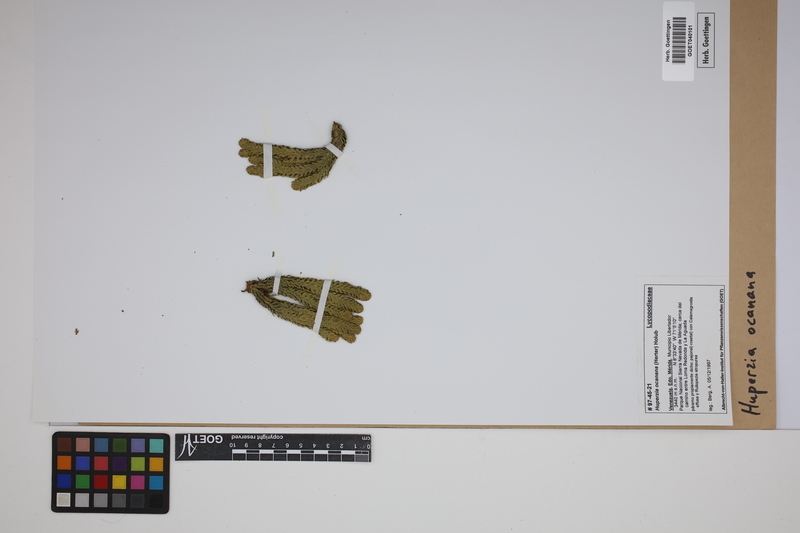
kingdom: Plantae
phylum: Tracheophyta
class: Lycopodiopsida
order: Lycopodiales
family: Lycopodiaceae
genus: Phlegmariurus
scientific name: Phlegmariurus ocananus
